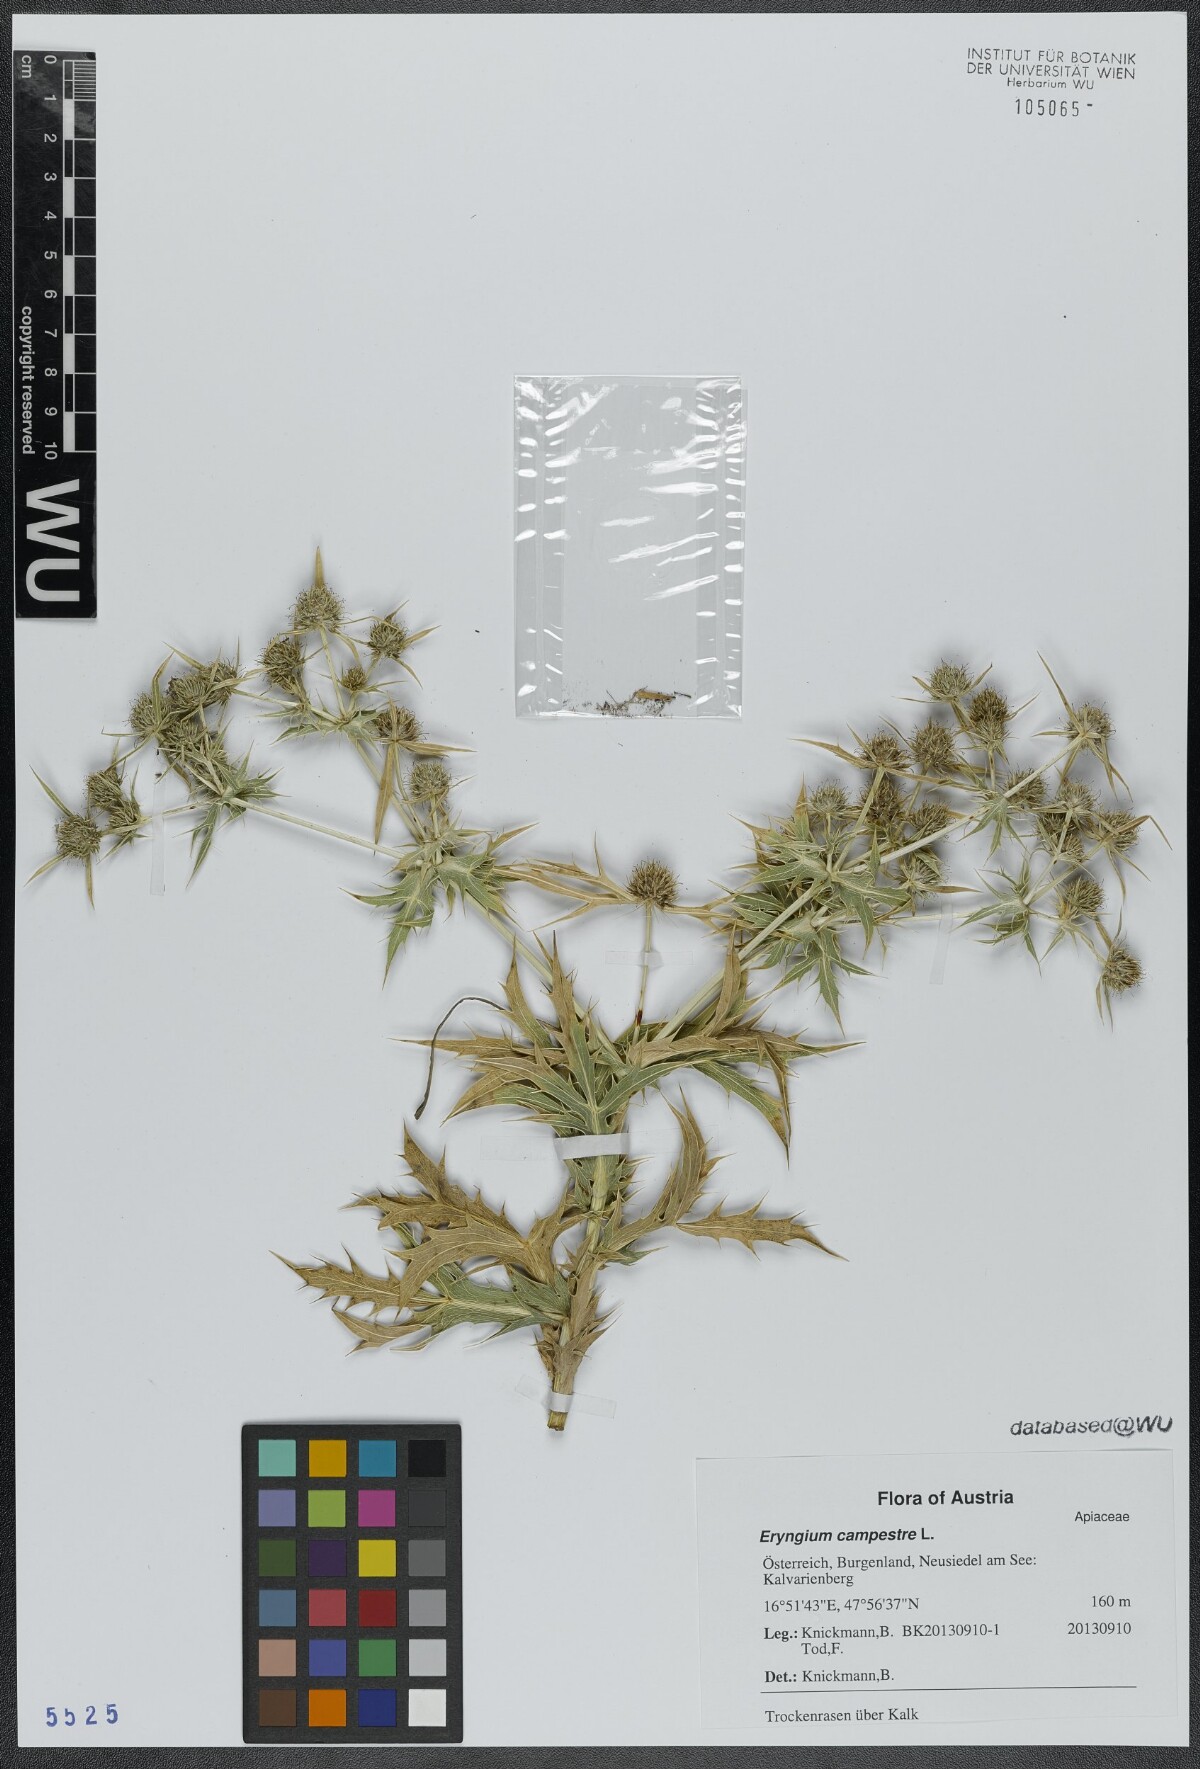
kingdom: Plantae
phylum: Tracheophyta
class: Magnoliopsida
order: Apiales
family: Apiaceae
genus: Eryngium
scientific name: Eryngium campestre
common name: Field eryngo
